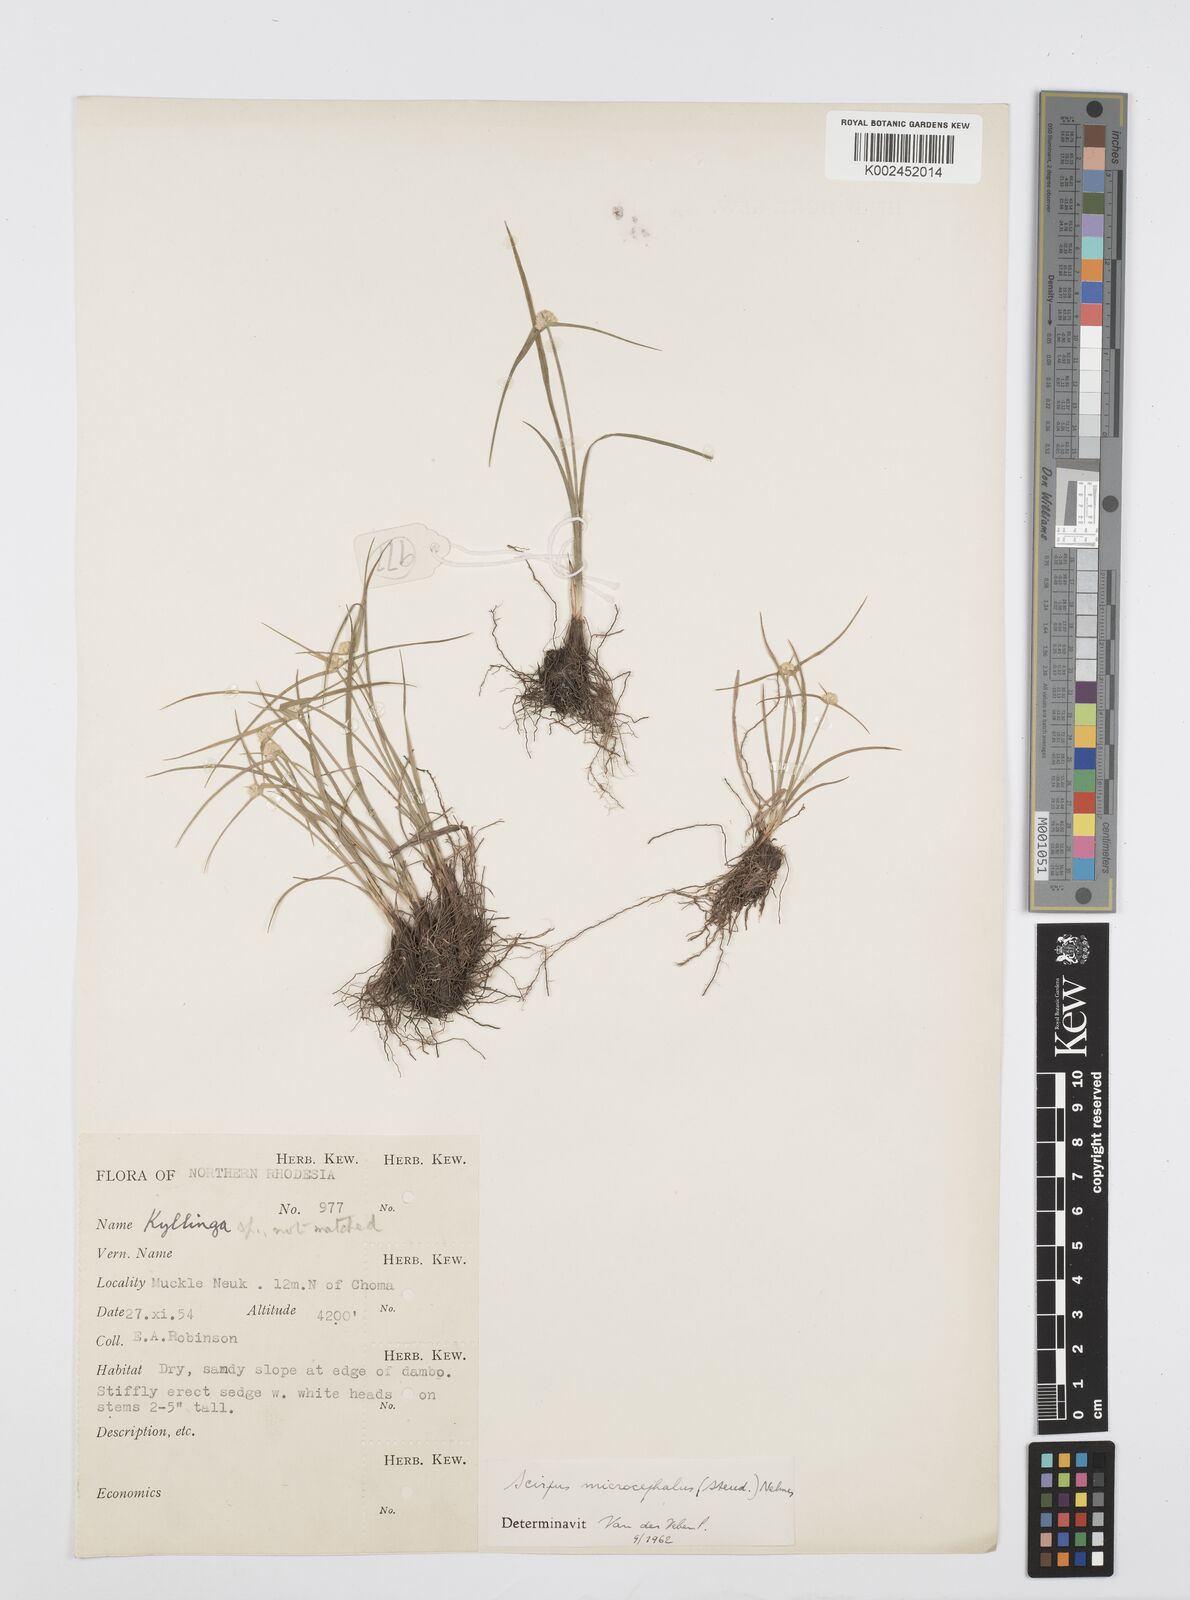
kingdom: Plantae
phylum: Tracheophyta
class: Liliopsida
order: Poales
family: Cyperaceae
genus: Cyperus
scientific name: Cyperus conglobatus
